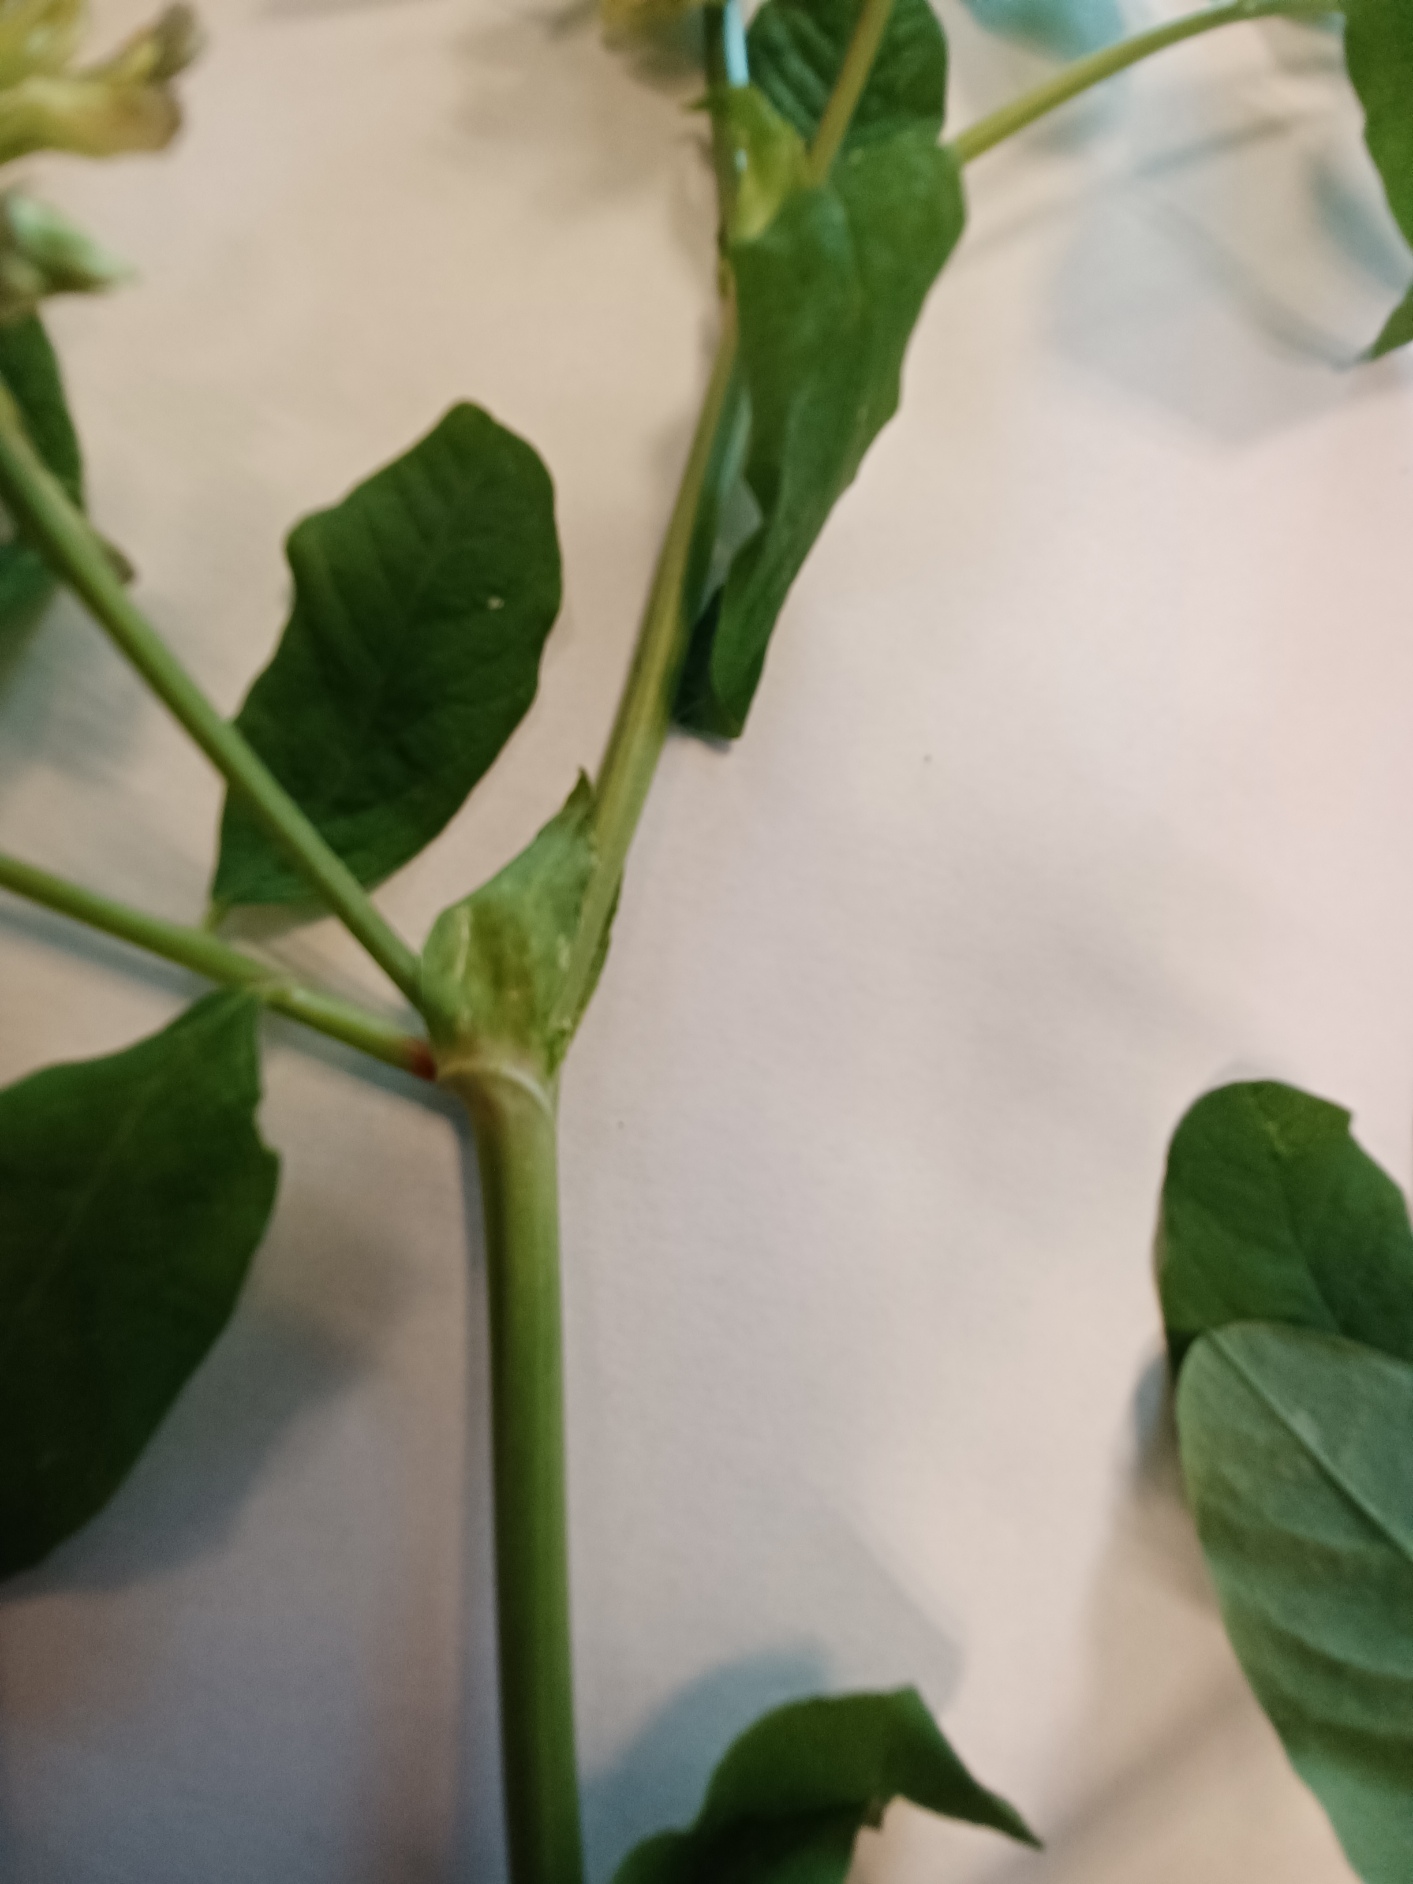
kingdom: Plantae
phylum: Tracheophyta
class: Magnoliopsida
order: Fabales
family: Fabaceae
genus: Astragalus
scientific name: Astragalus glycyphyllos
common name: Sød astragel
